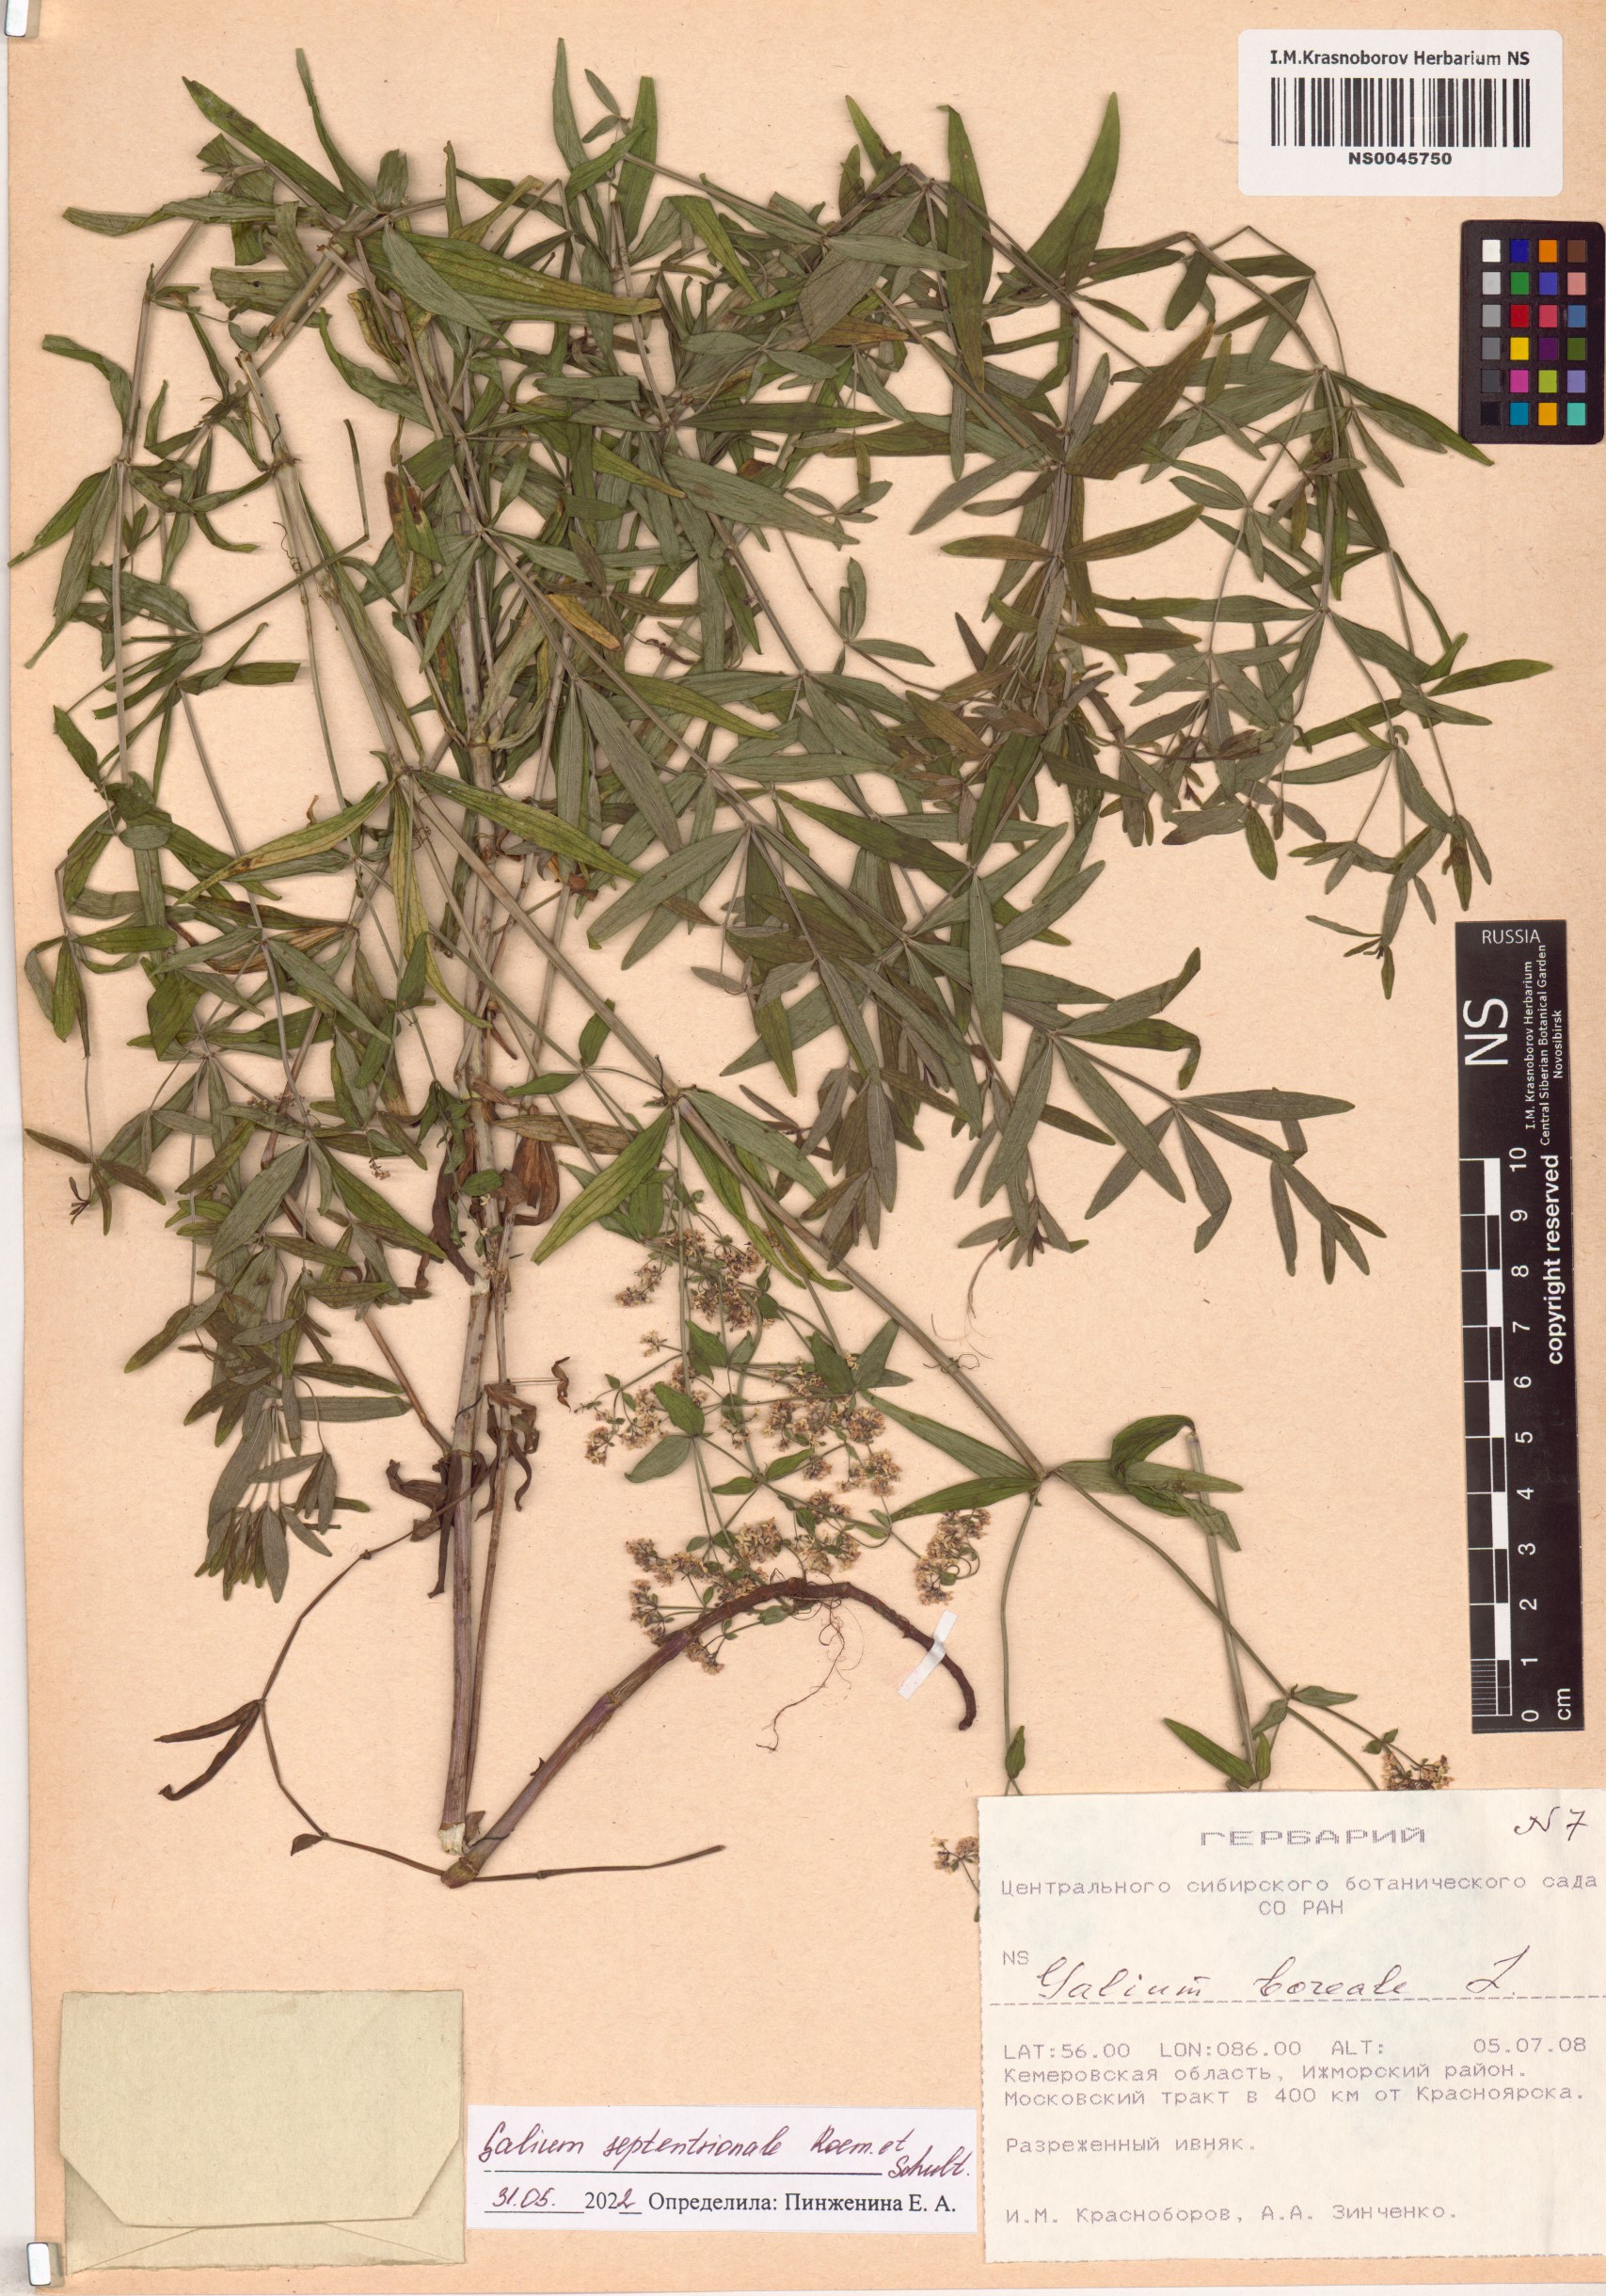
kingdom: Plantae
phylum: Tracheophyta
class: Magnoliopsida
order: Gentianales
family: Rubiaceae
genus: Galium
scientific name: Galium boreale
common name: Northern bedstraw
